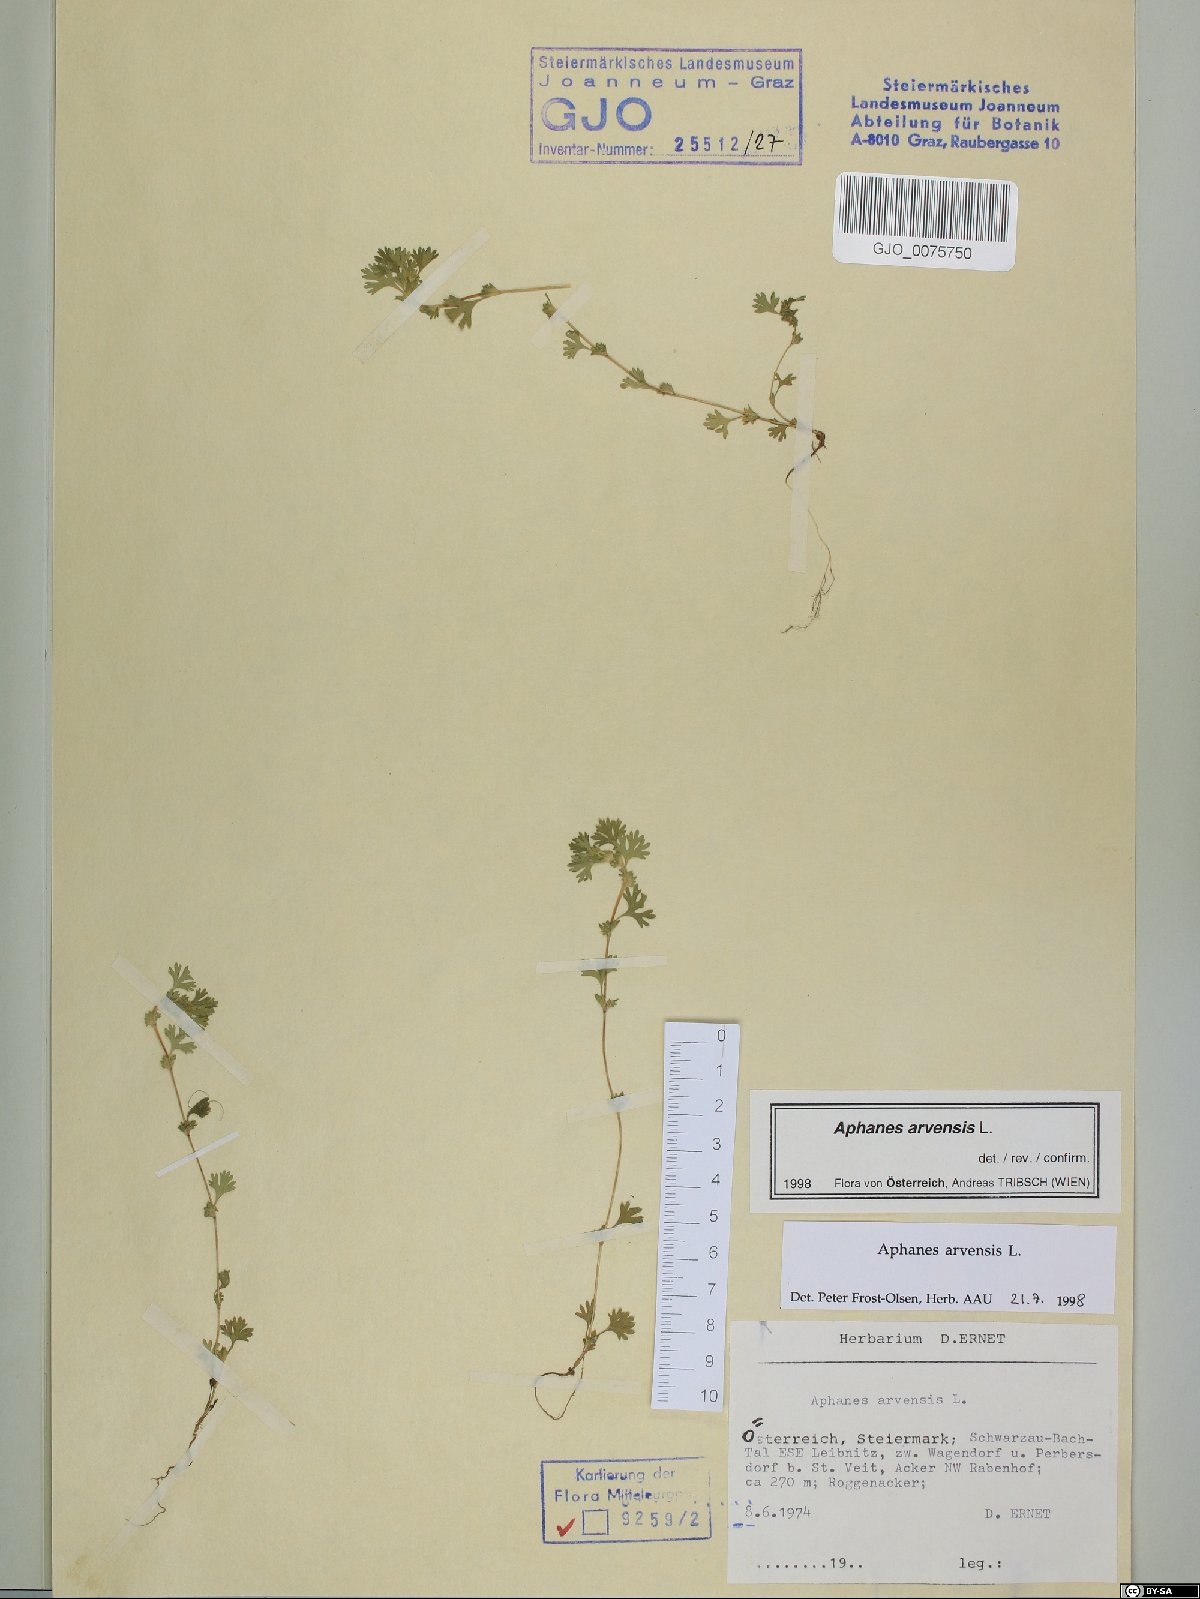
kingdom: Plantae
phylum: Tracheophyta
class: Magnoliopsida
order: Rosales
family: Rosaceae
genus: Aphanes
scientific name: Aphanes arvensis
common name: Parsley-piert
